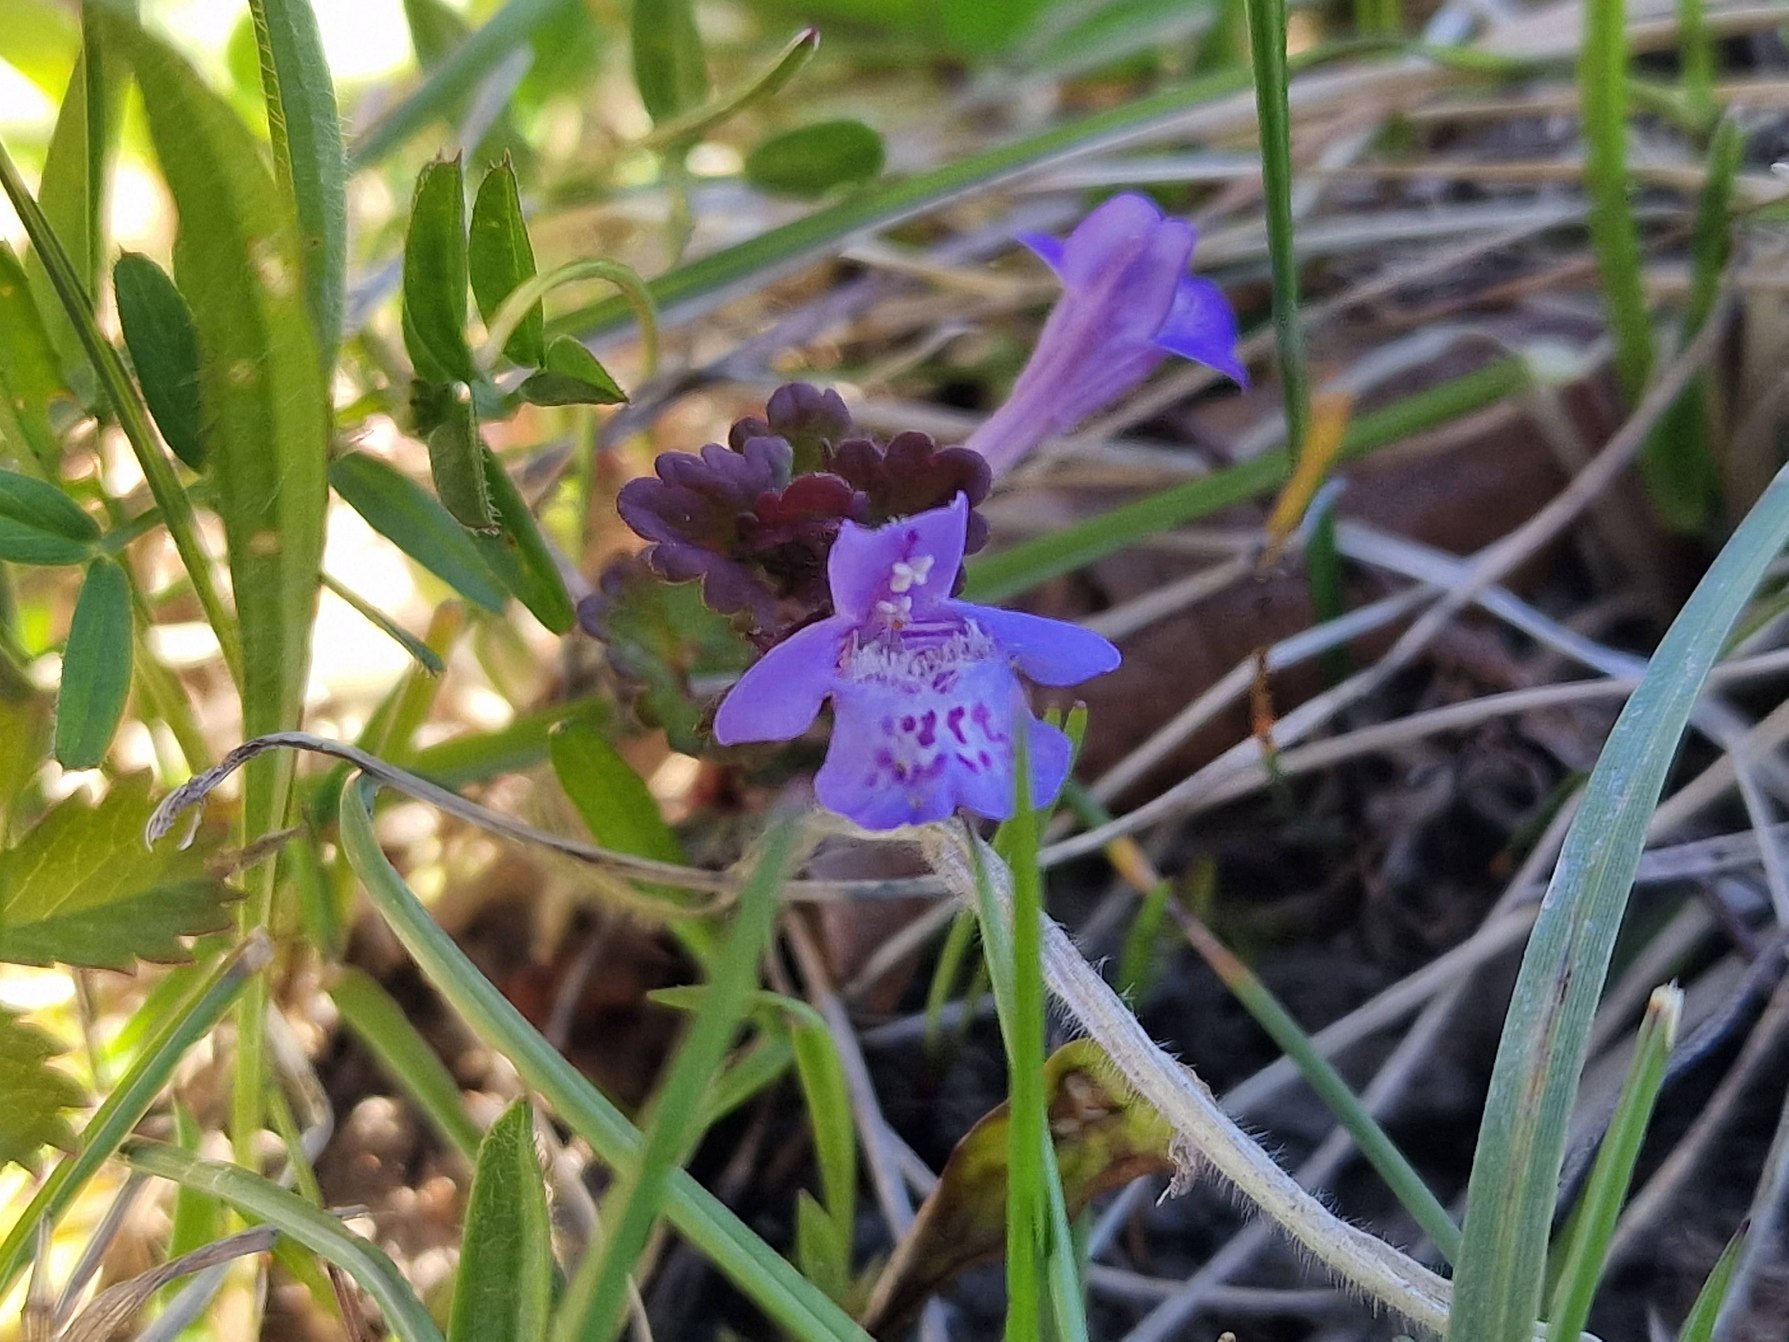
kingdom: Plantae
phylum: Tracheophyta
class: Magnoliopsida
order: Lamiales
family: Lamiaceae
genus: Glechoma
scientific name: Glechoma hederacea
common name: Korsknap
